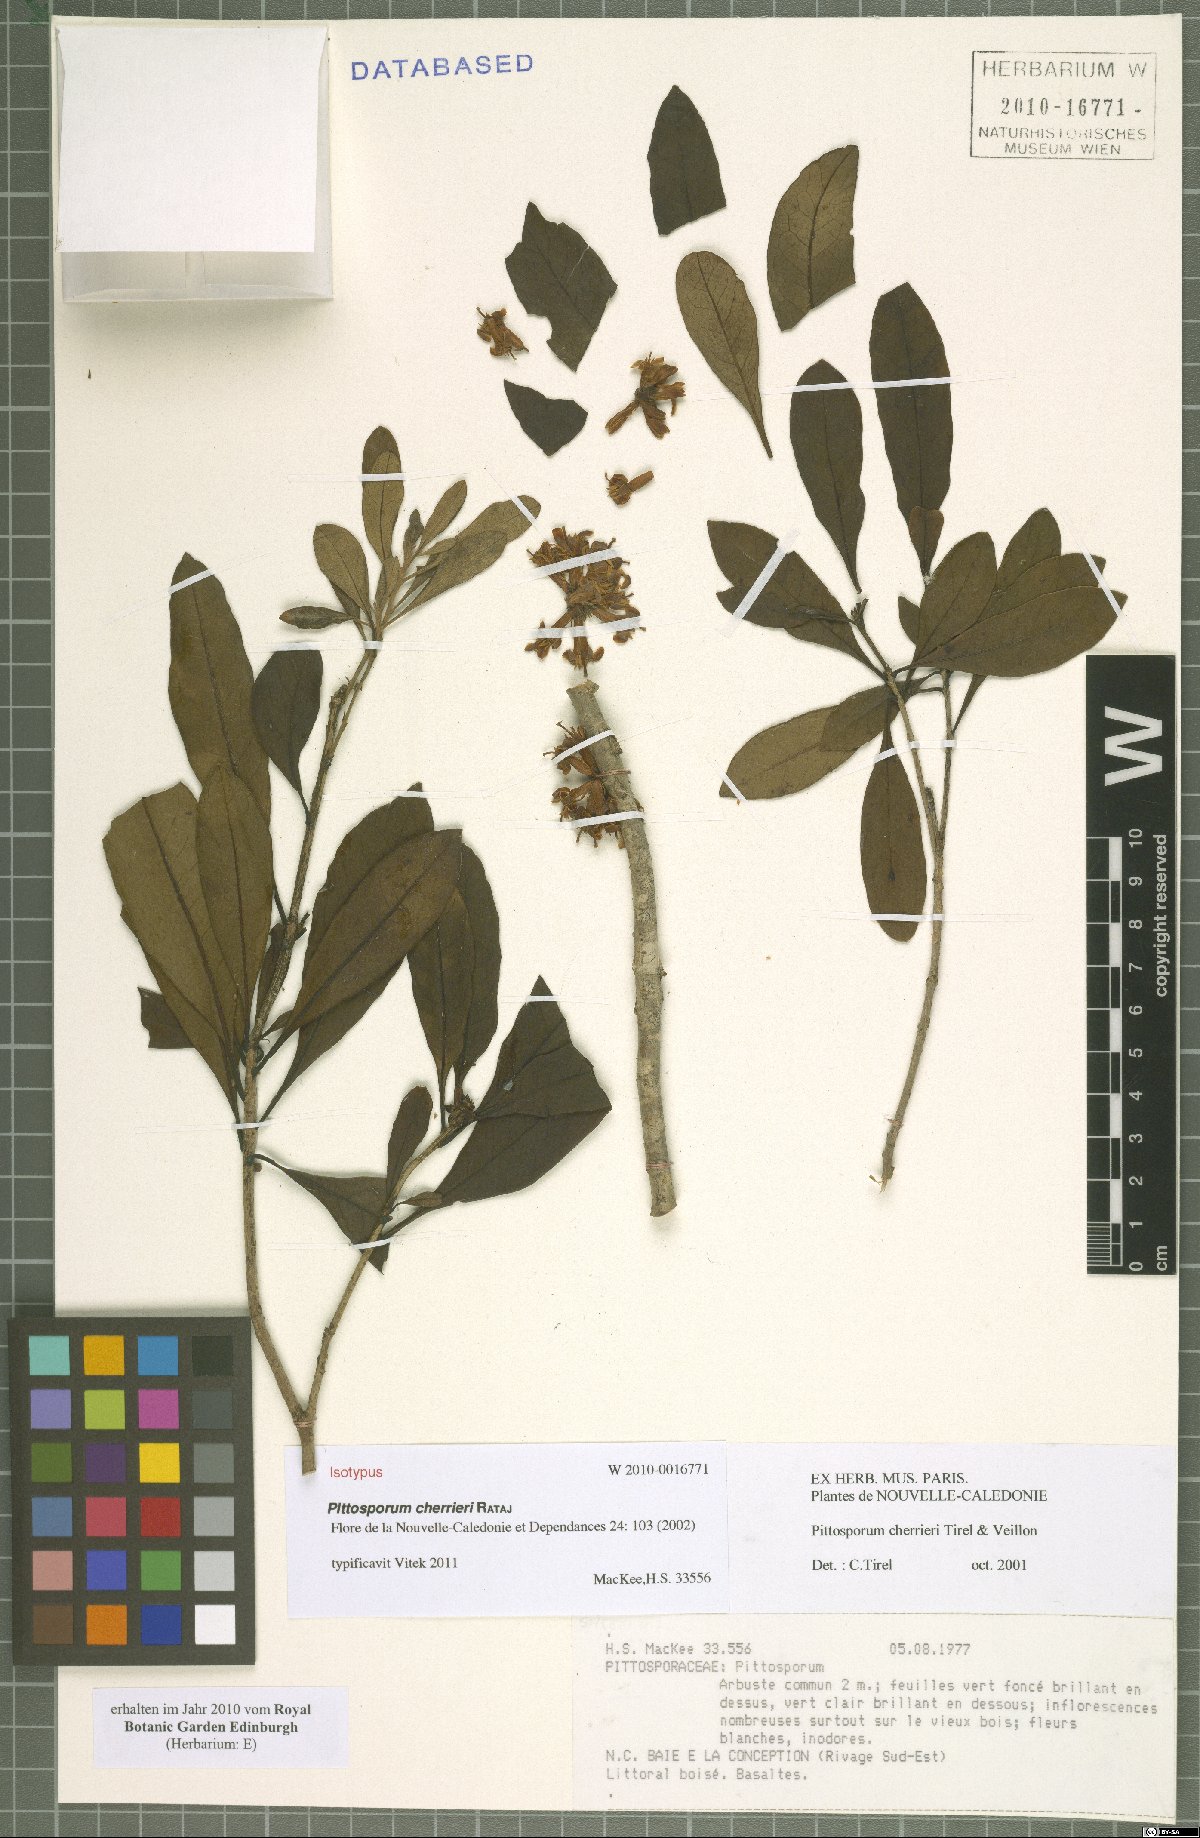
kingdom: Plantae
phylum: Tracheophyta
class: Magnoliopsida
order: Apiales
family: Pittosporaceae
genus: Pittosporum
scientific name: Pittosporum cherrieri
